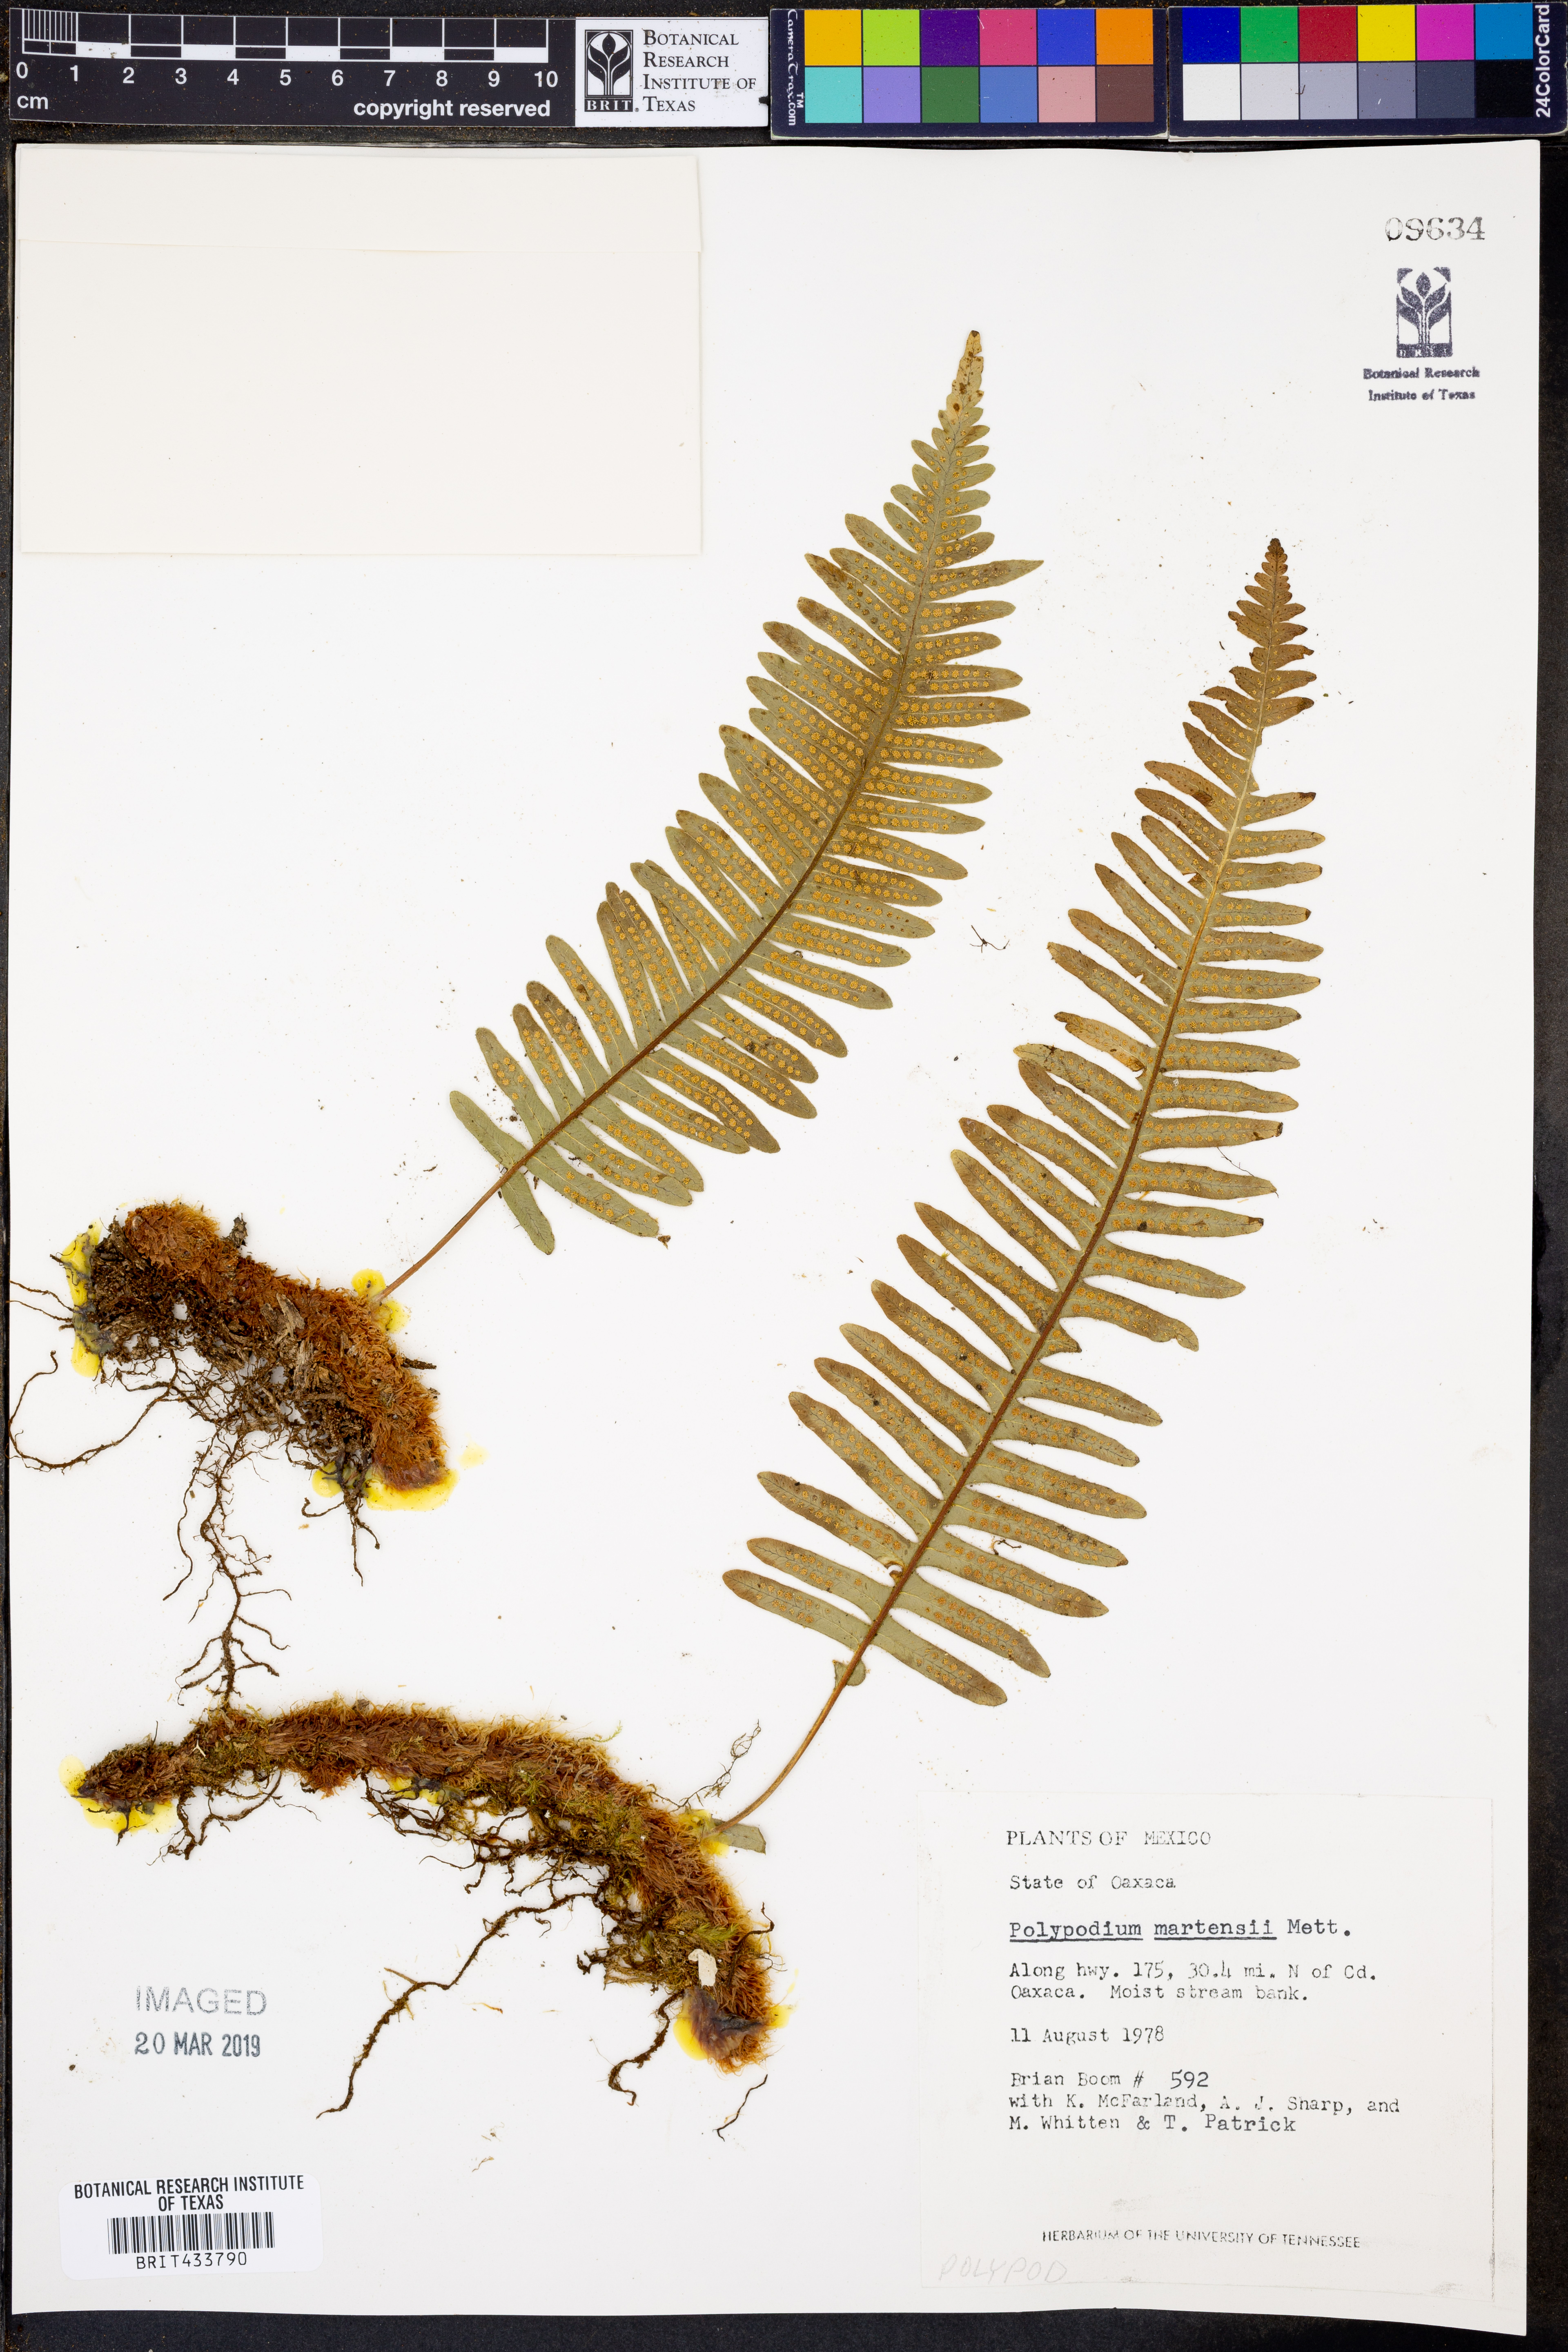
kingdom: Plantae
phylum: Tracheophyta
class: Polypodiopsida
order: Polypodiales
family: Polypodiaceae
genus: Polypodium
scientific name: Polypodium martensii
